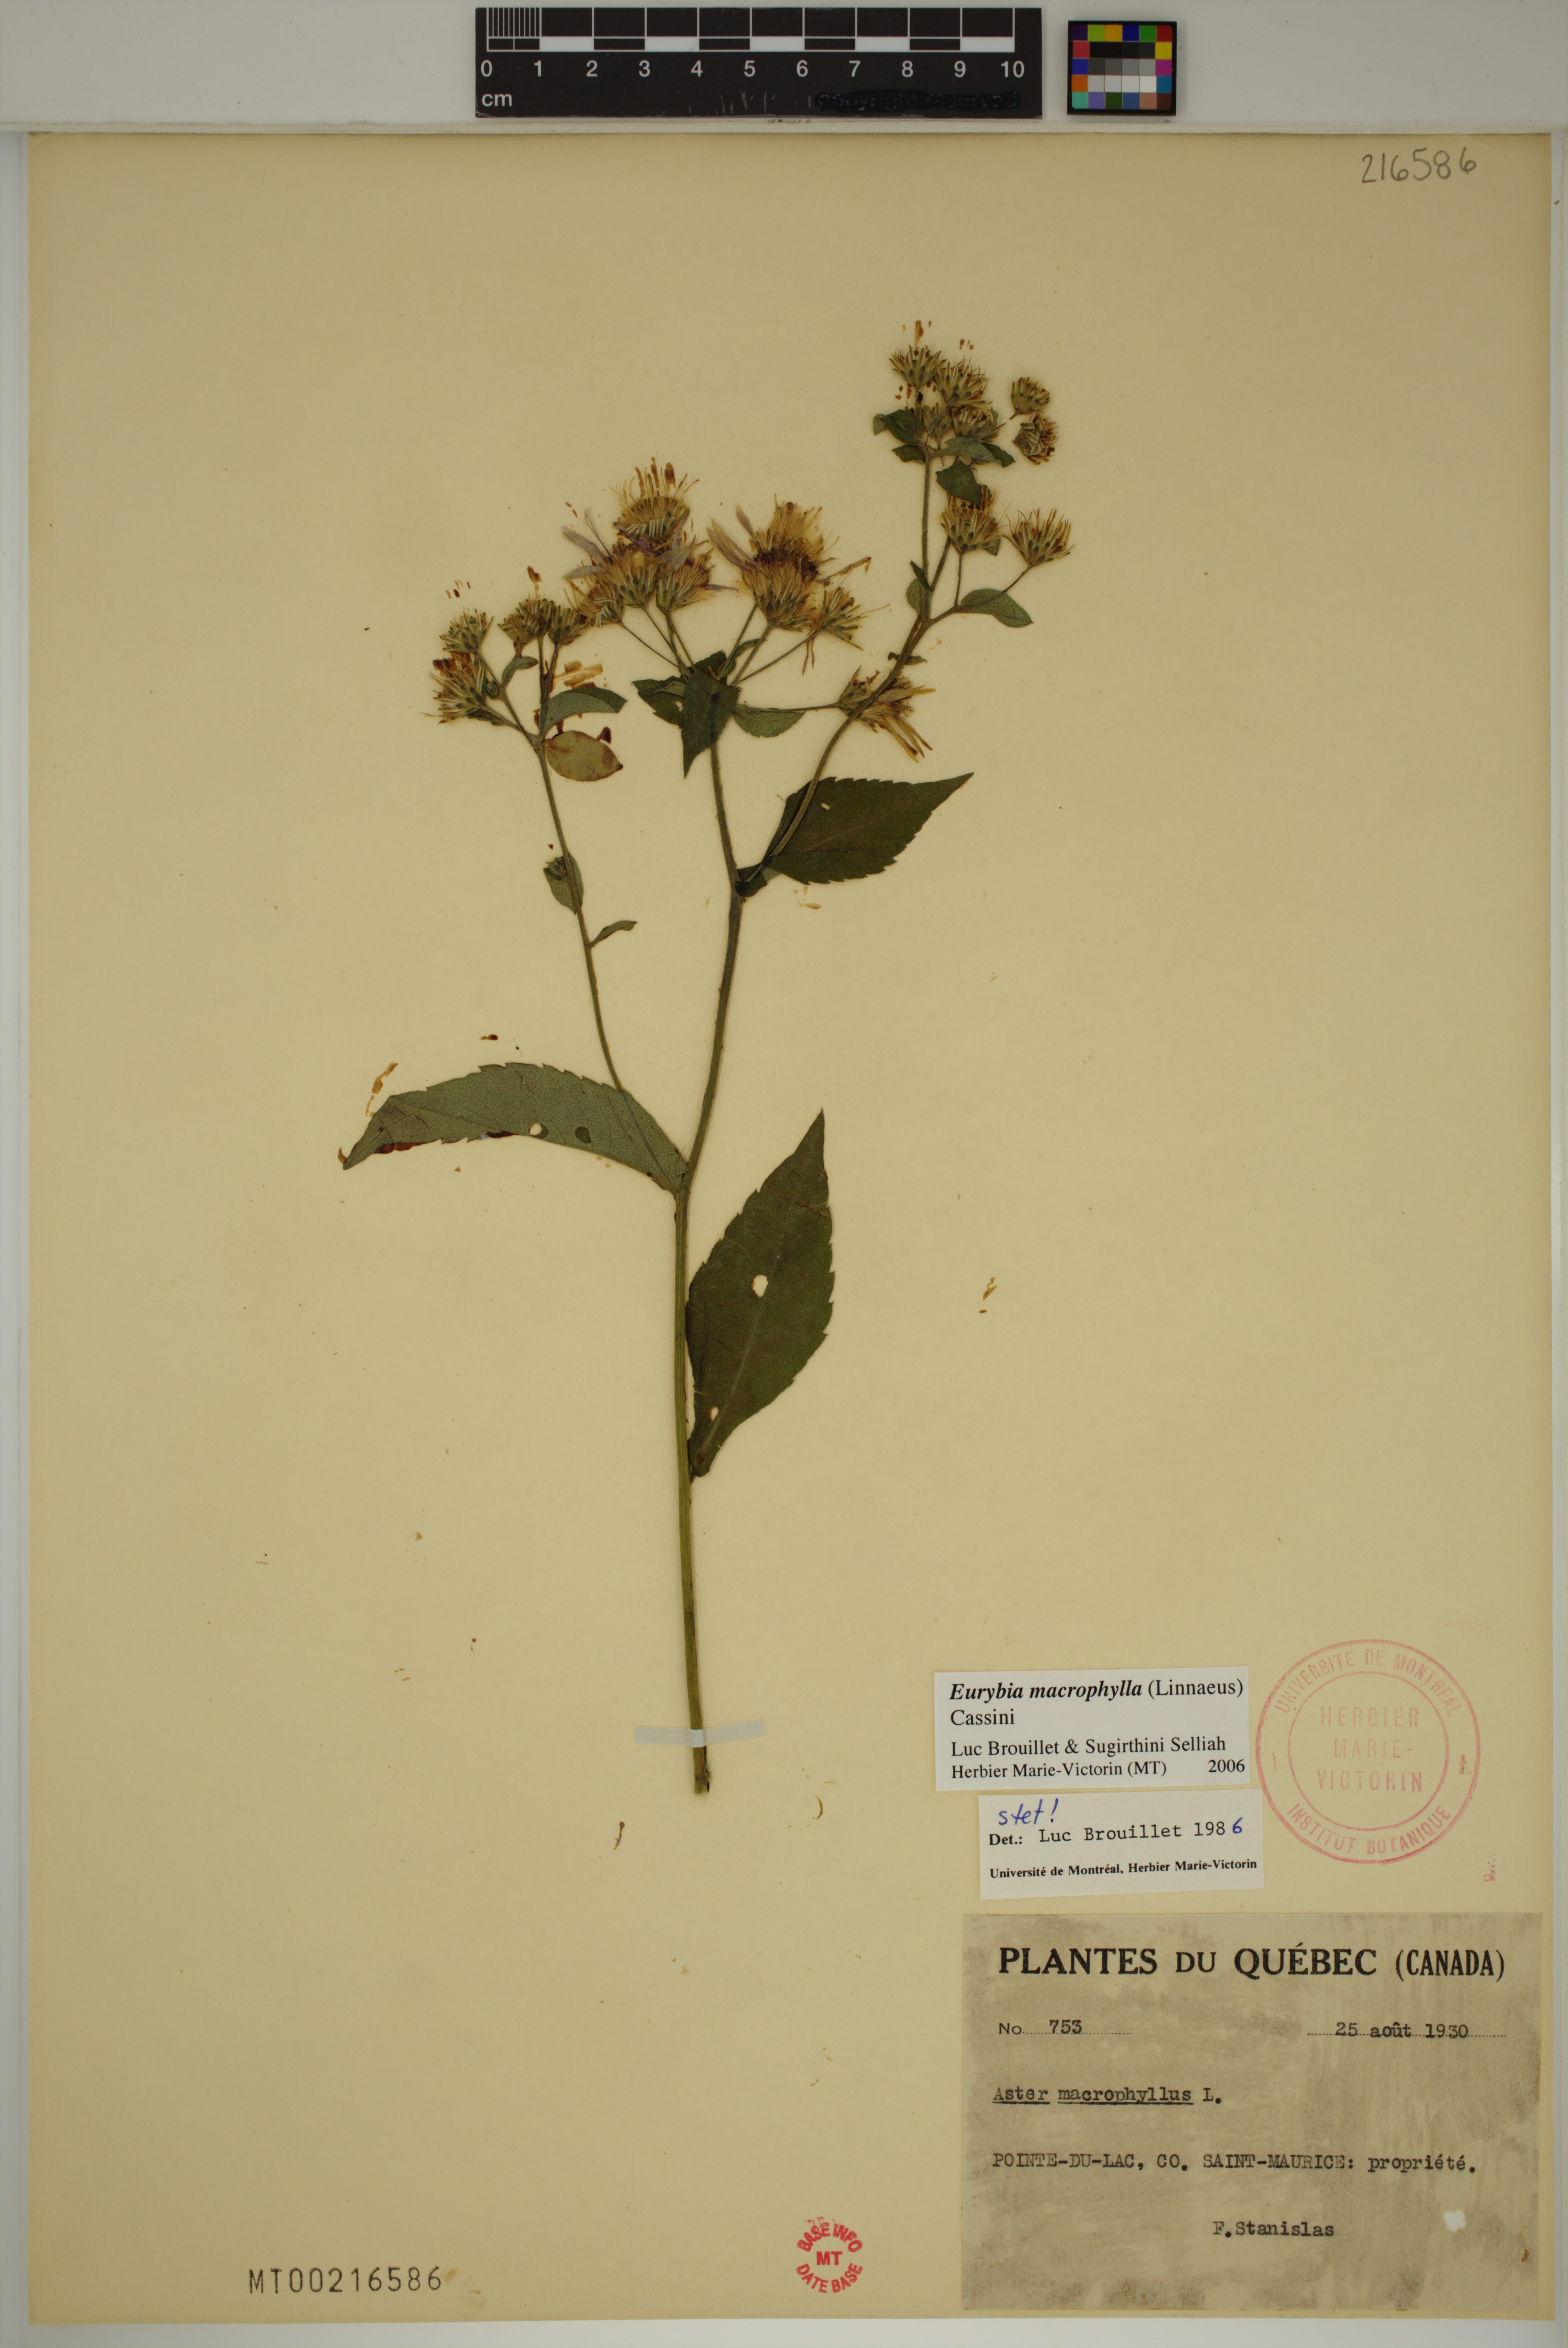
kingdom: Plantae
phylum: Tracheophyta
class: Magnoliopsida
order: Asterales
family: Asteraceae
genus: Eurybia
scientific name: Eurybia macrophylla
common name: Big-leaved aster
